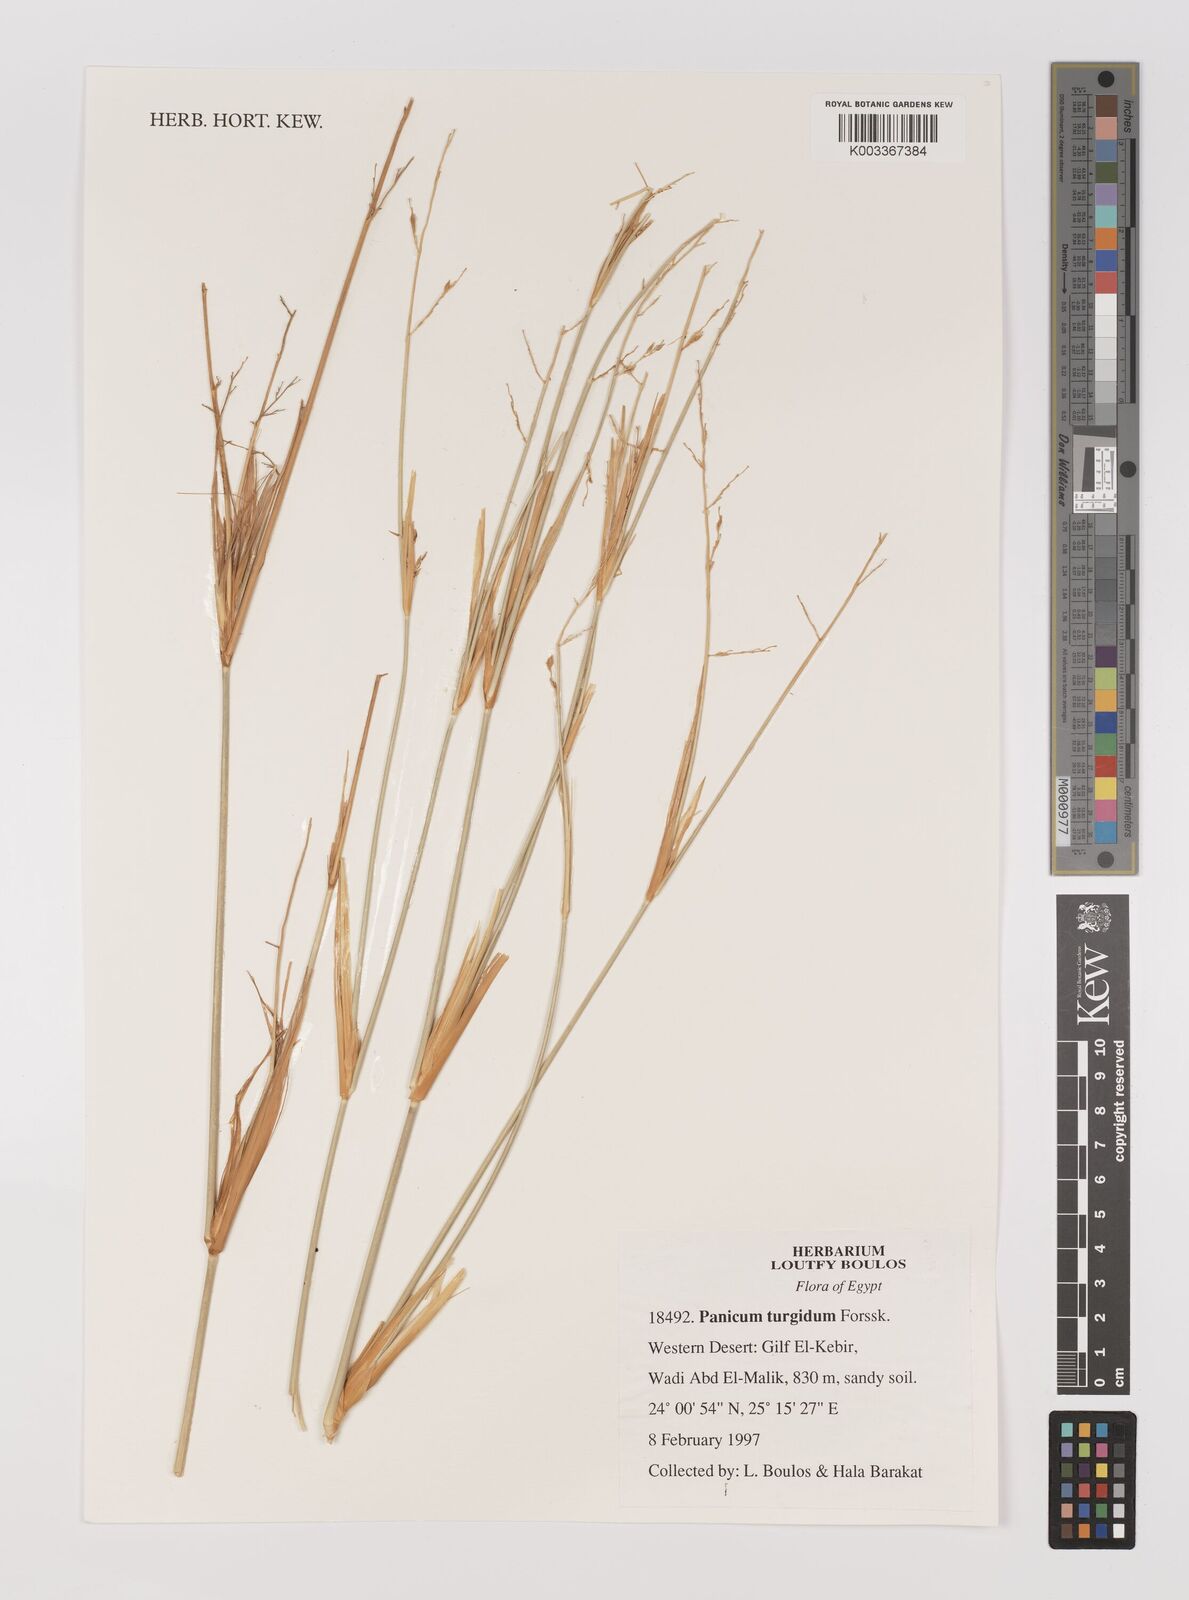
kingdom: Plantae
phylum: Tracheophyta
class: Liliopsida
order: Poales
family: Poaceae
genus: Panicum
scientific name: Panicum turgidum
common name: Desert grass
